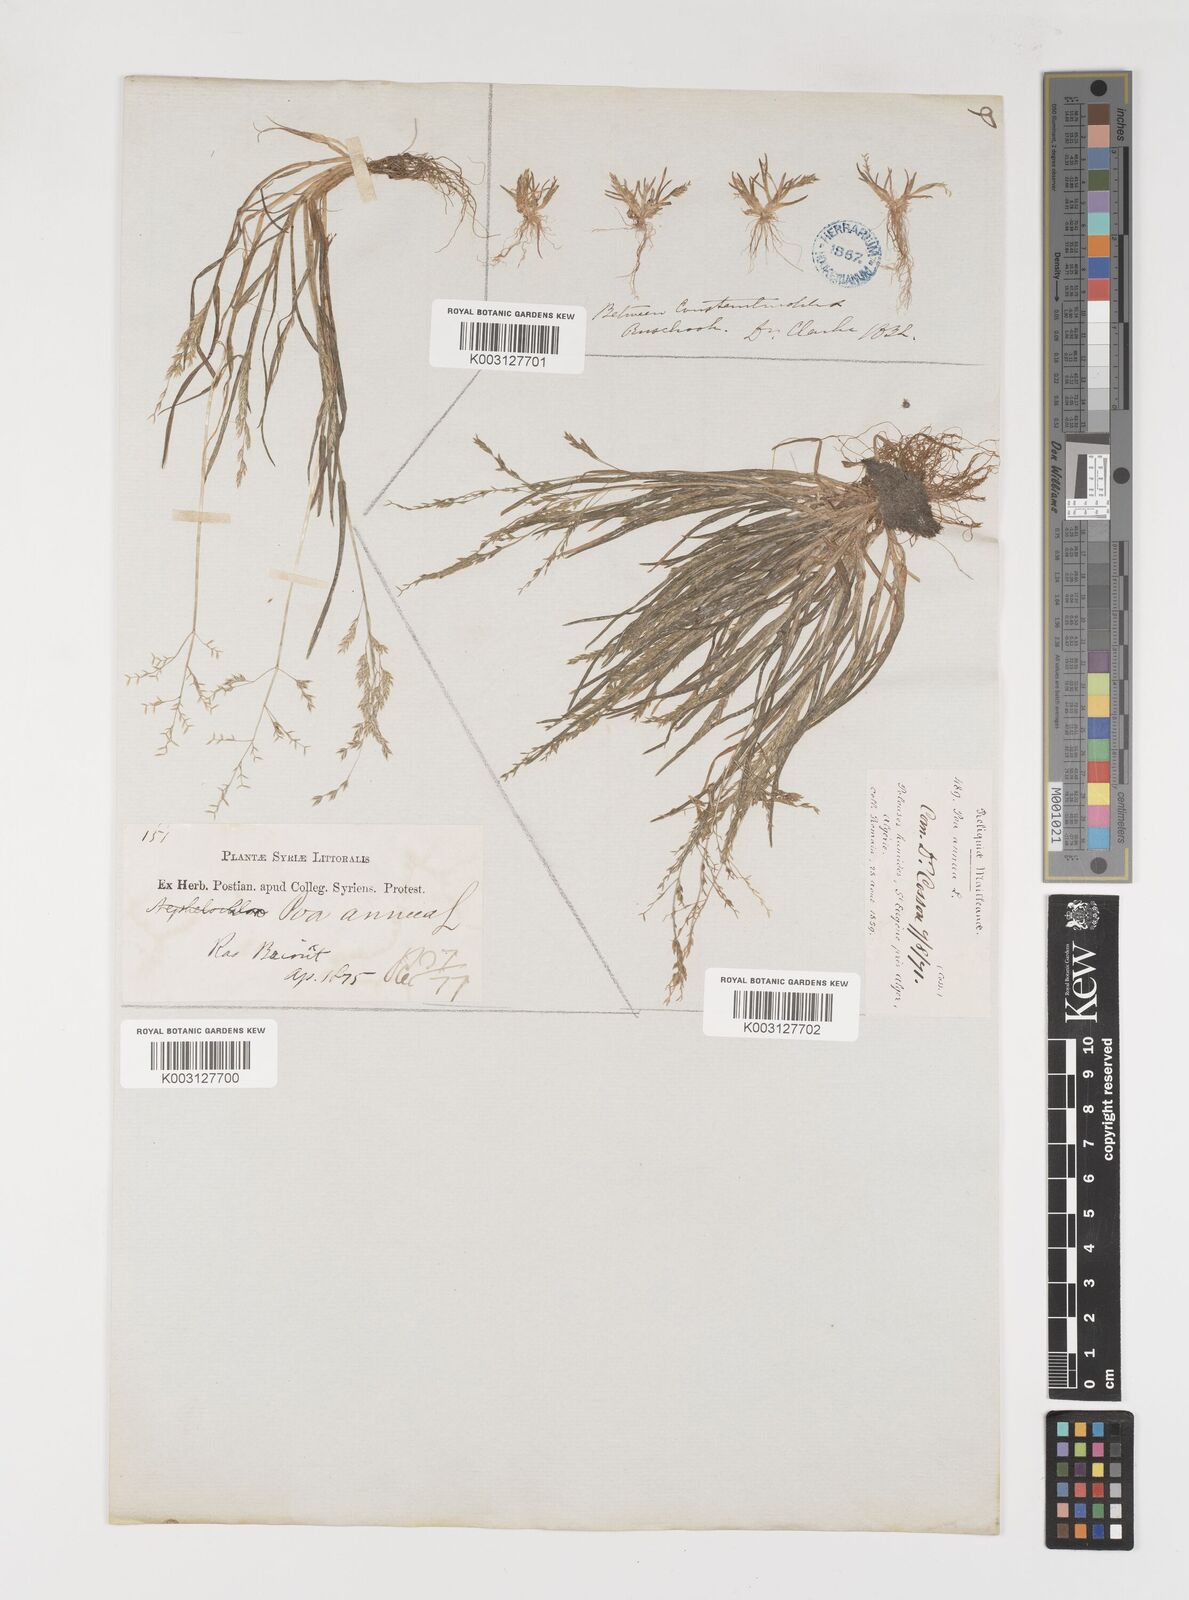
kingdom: Plantae
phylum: Tracheophyta
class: Liliopsida
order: Poales
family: Poaceae
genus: Poa
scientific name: Poa annua
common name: Annual bluegrass
